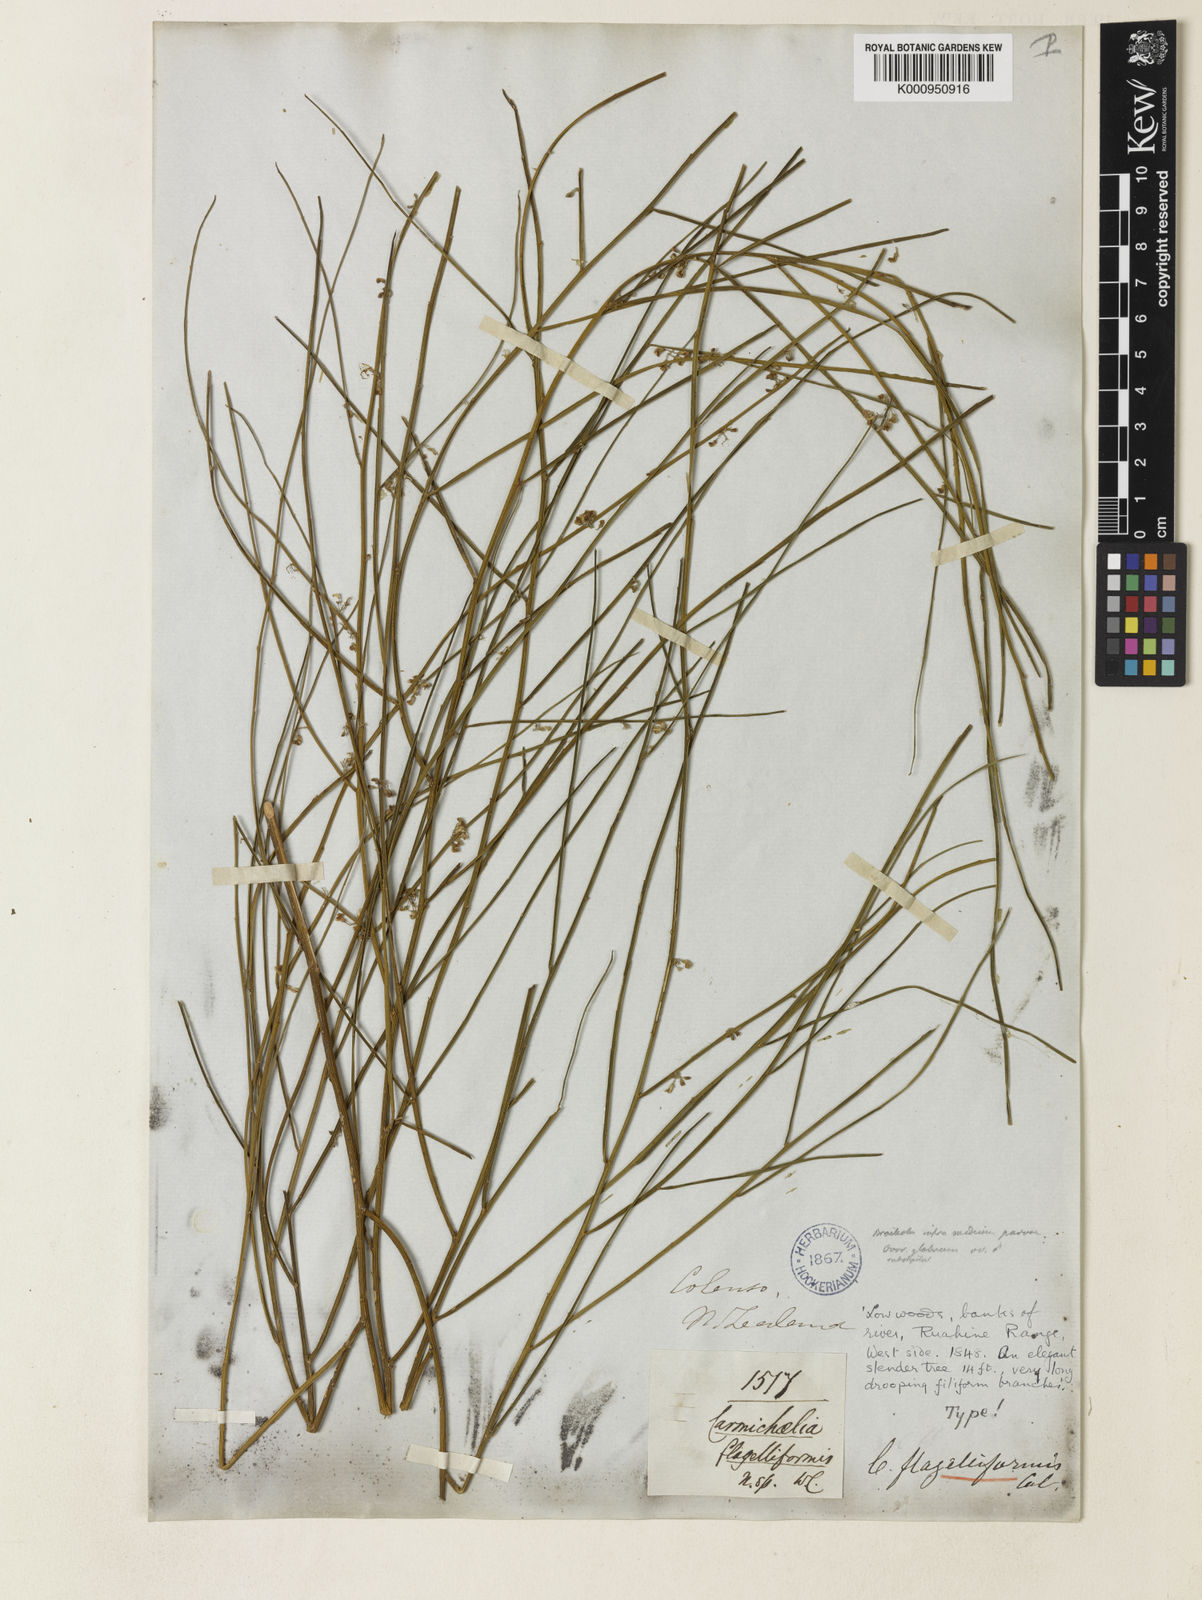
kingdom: Plantae
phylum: Tracheophyta
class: Magnoliopsida
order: Fabales
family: Fabaceae
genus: Carmichaelia
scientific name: Carmichaelia australis
